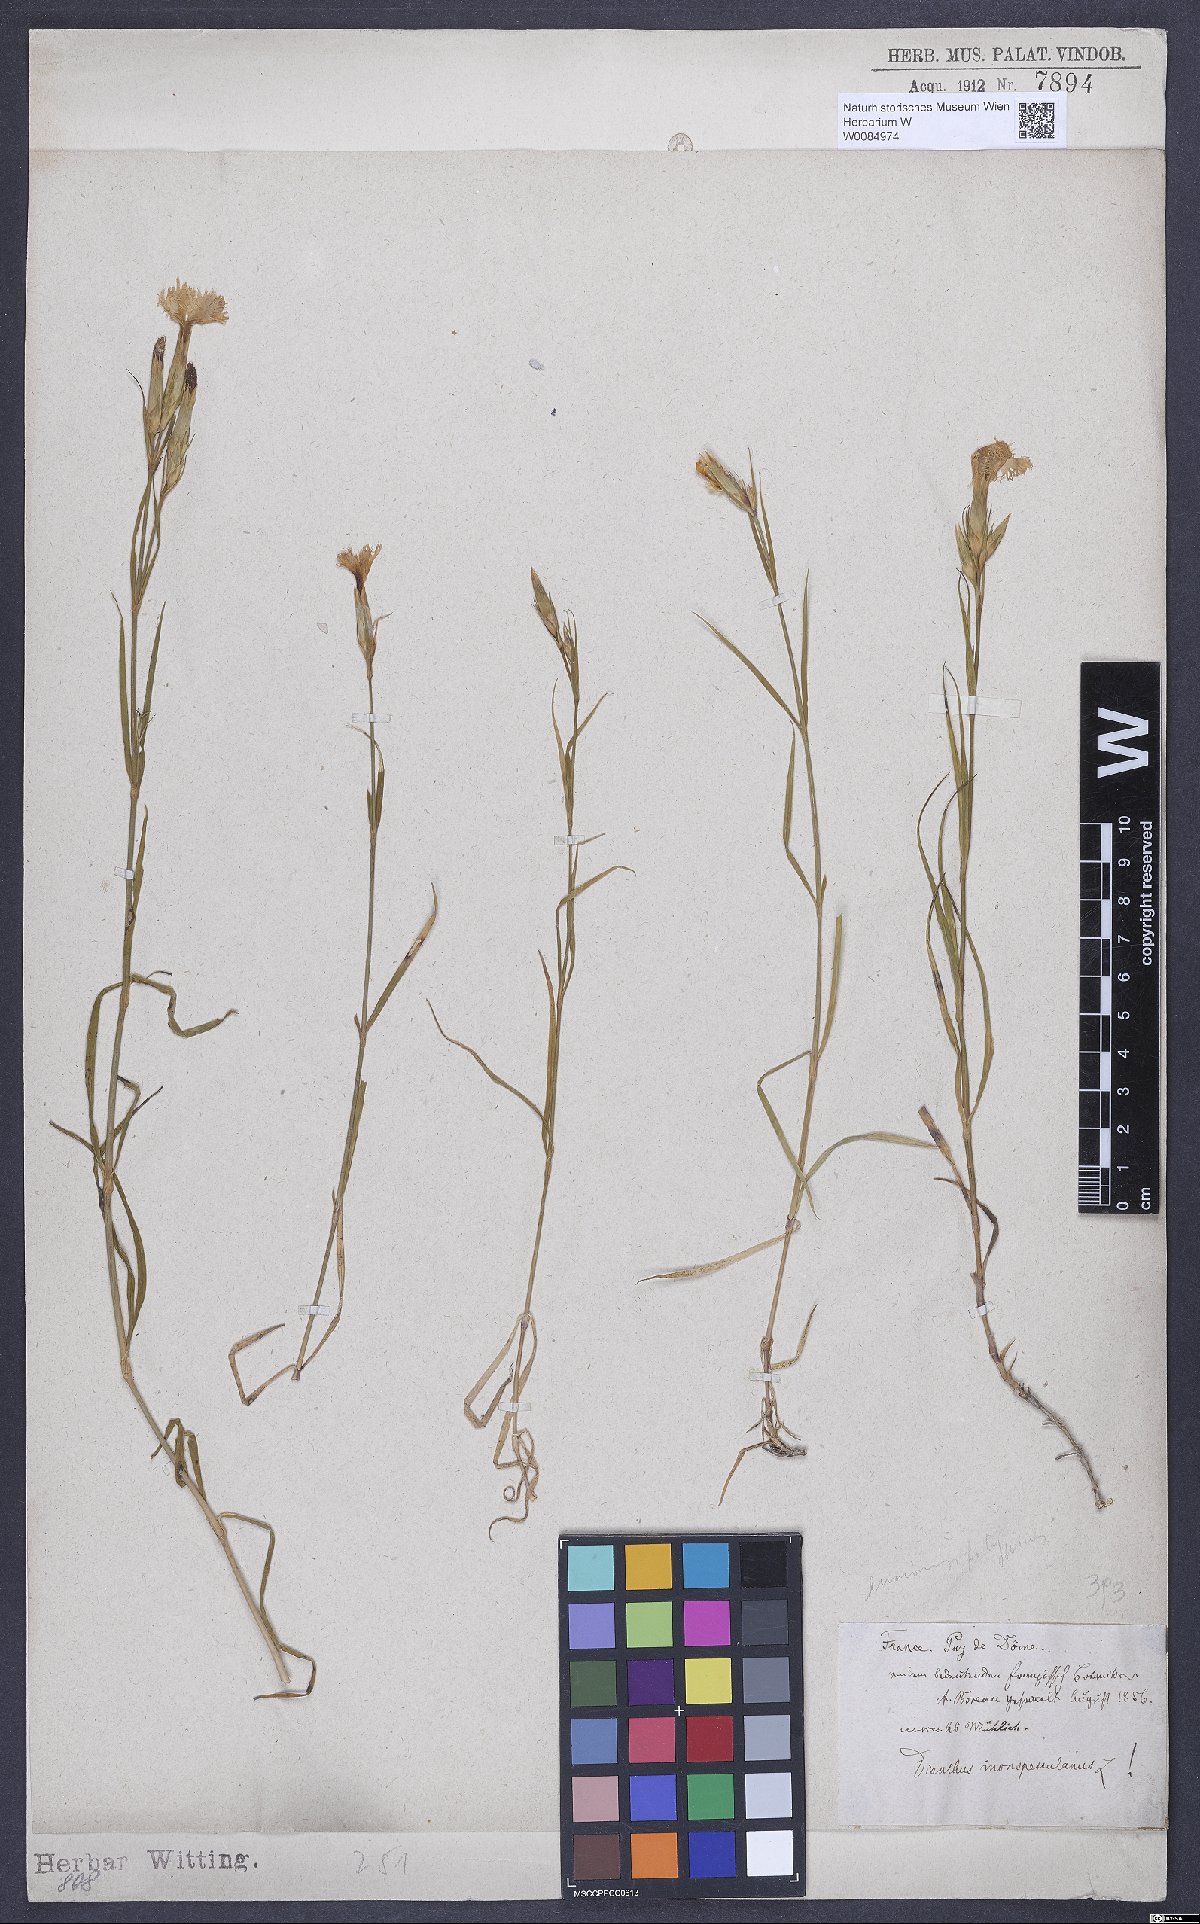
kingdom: Plantae
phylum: Tracheophyta
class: Magnoliopsida
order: Caryophyllales
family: Caryophyllaceae
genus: Dianthus
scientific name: Dianthus hyssopifolius
